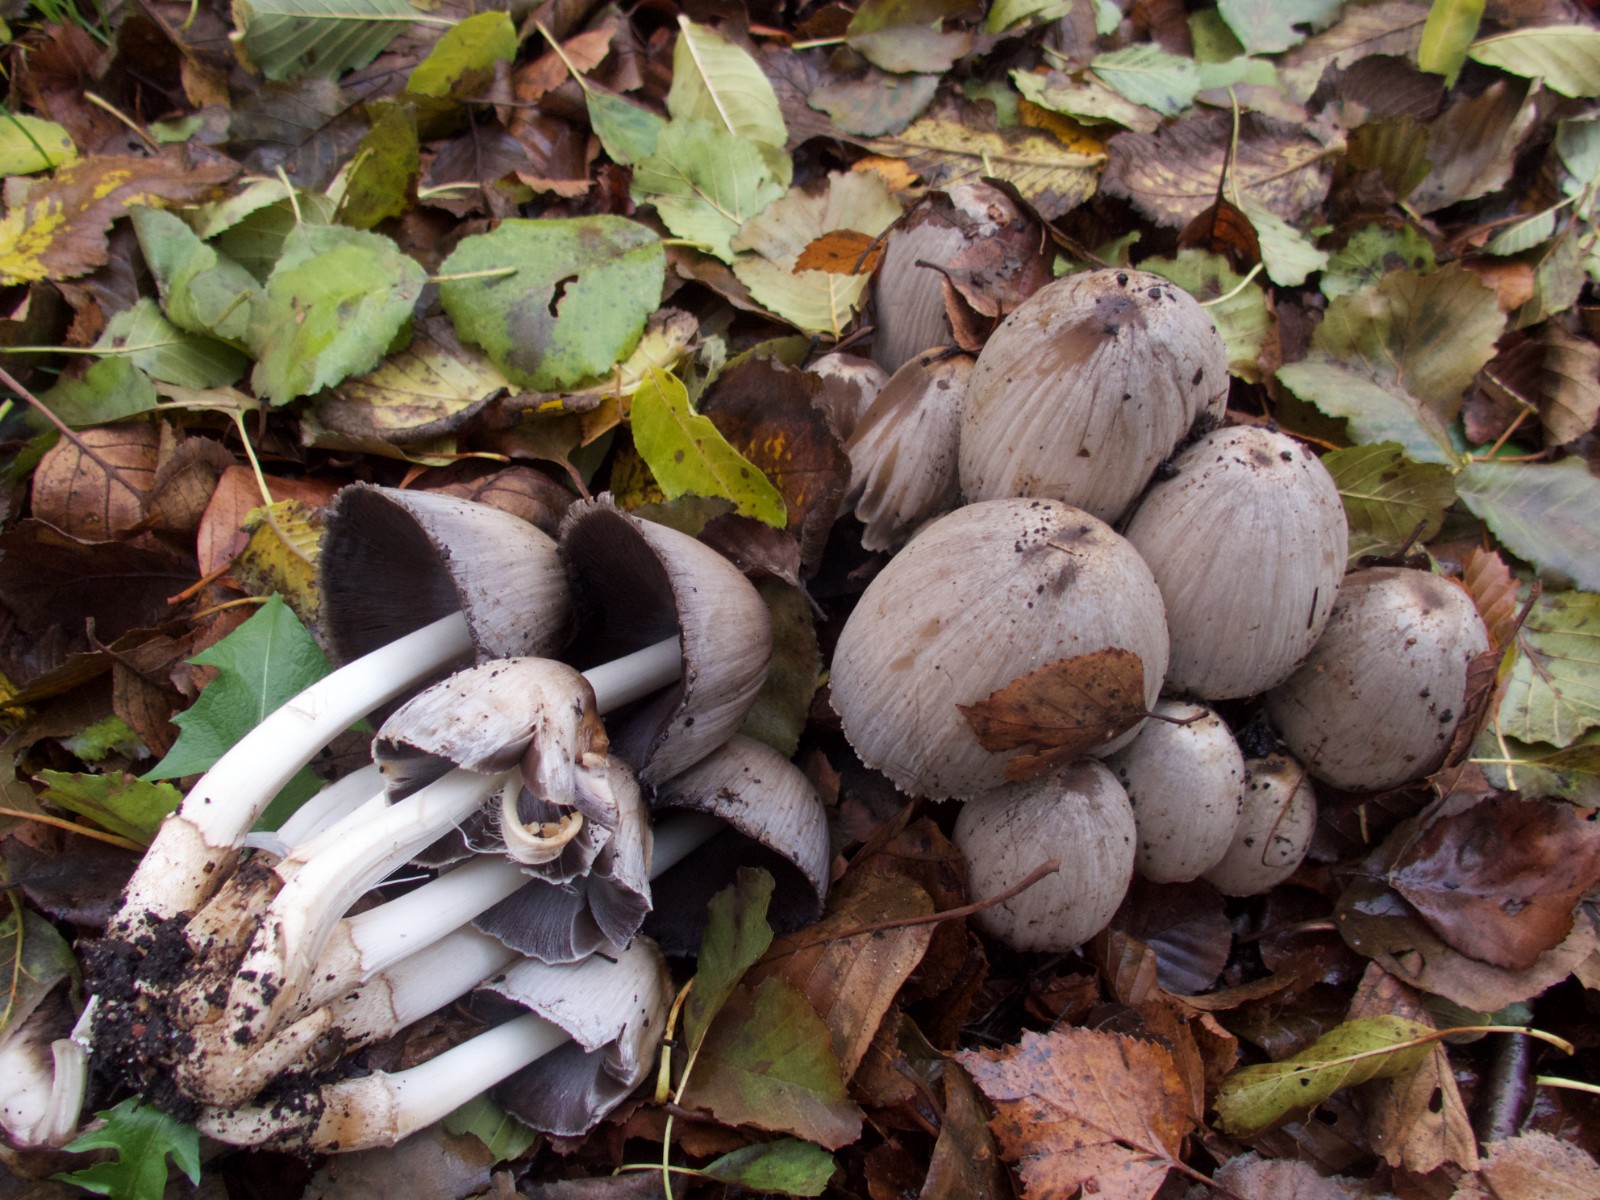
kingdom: Fungi
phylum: Basidiomycota
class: Agaricomycetes
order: Agaricales
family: Psathyrellaceae
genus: Coprinopsis
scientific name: Coprinopsis atramentaria
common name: almindelig blækhat
